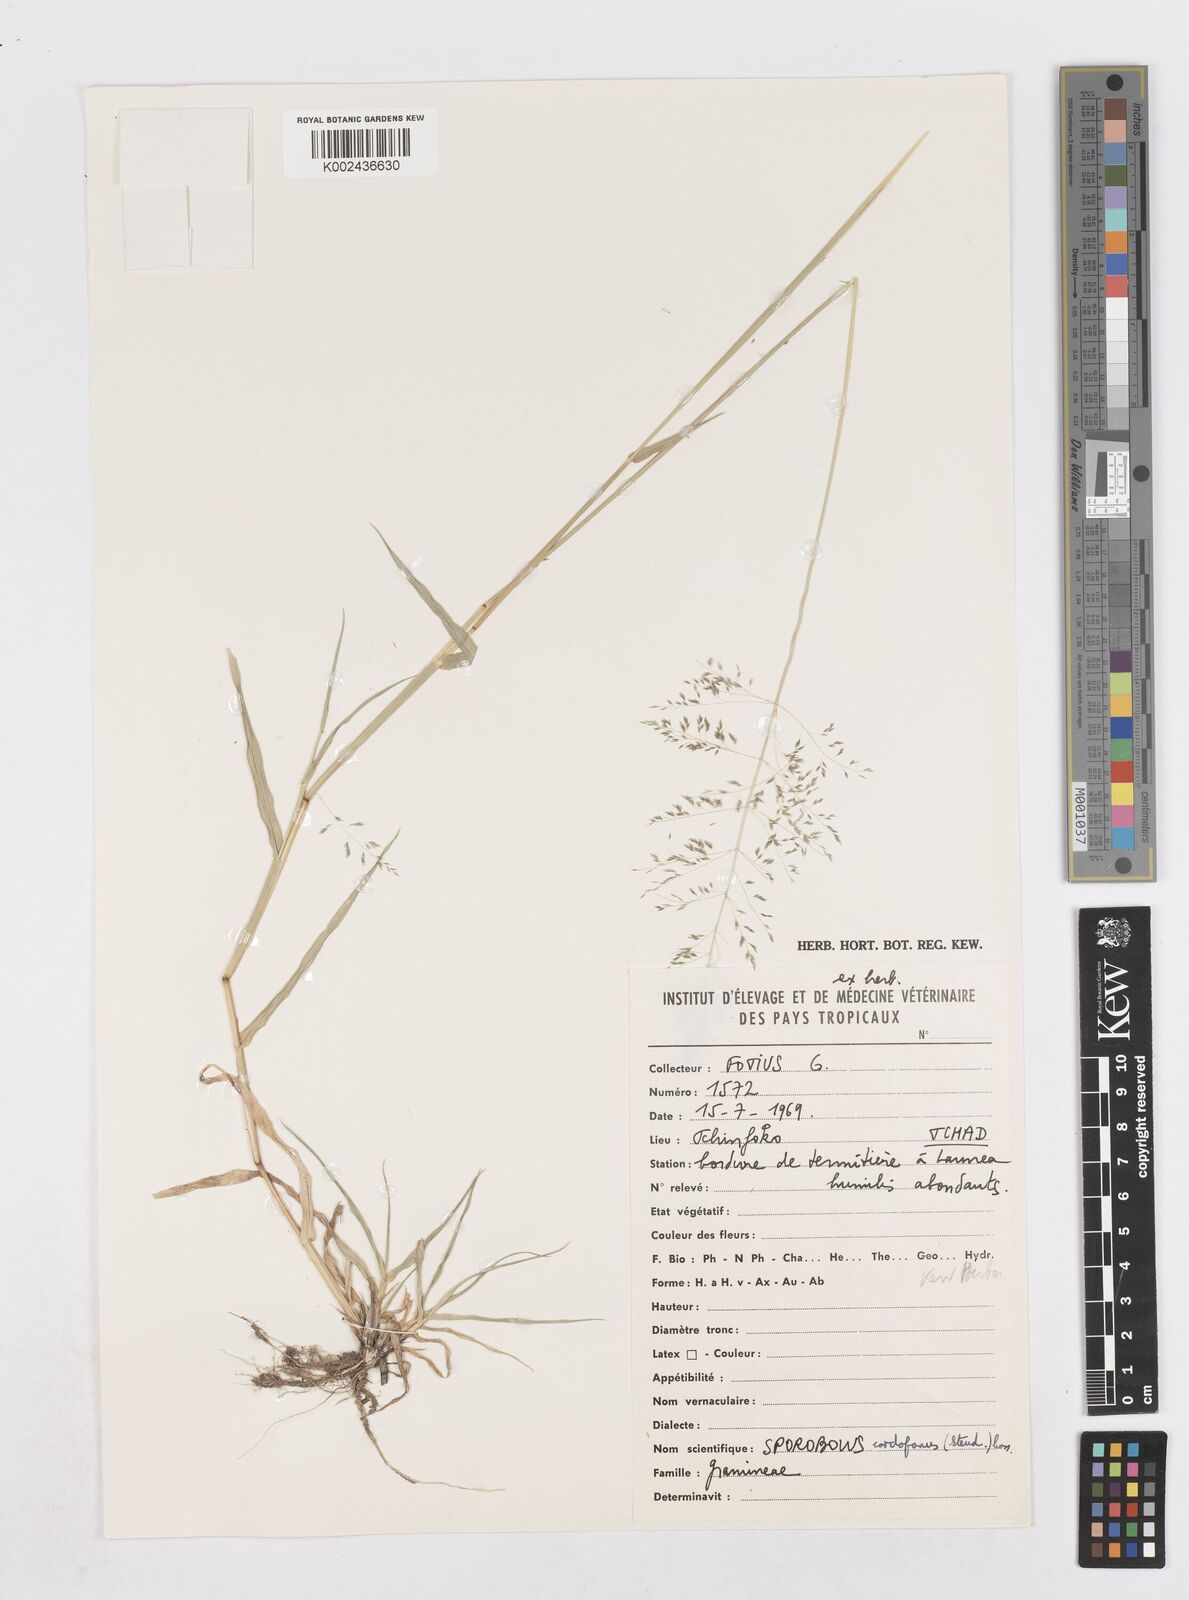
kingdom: Plantae
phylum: Tracheophyta
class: Liliopsida
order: Poales
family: Poaceae
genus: Sporobolus
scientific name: Sporobolus cordofanus
